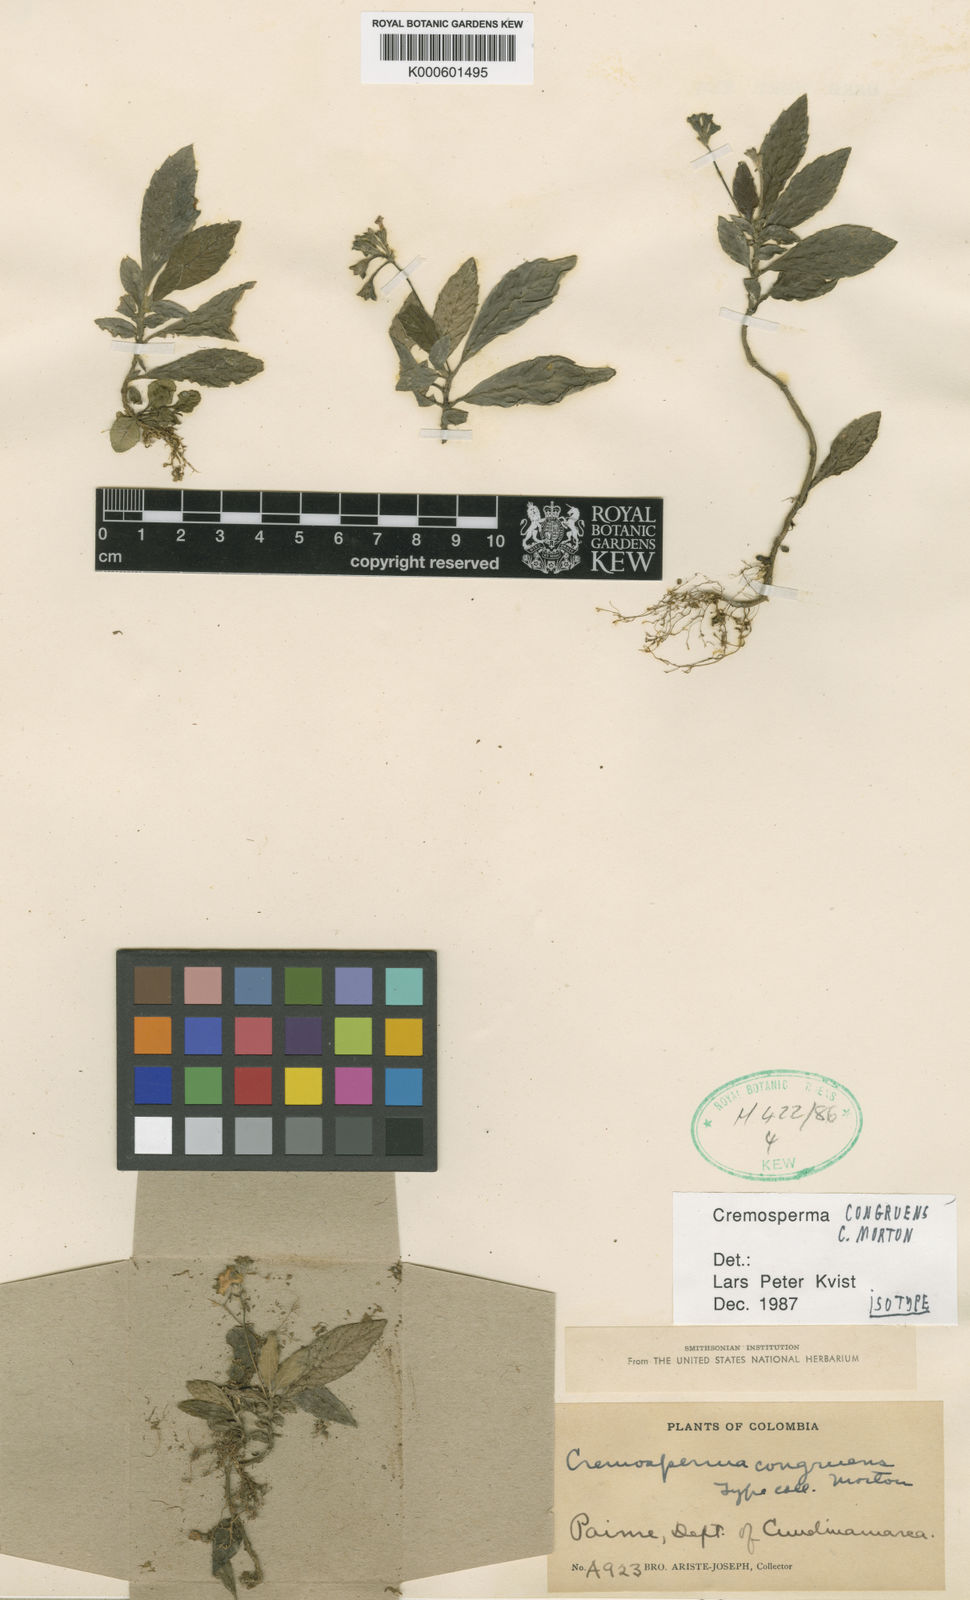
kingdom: Plantae
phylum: Tracheophyta
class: Magnoliopsida
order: Lamiales
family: Gesneriaceae
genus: Cremosperma
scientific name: Cremosperma congruens
